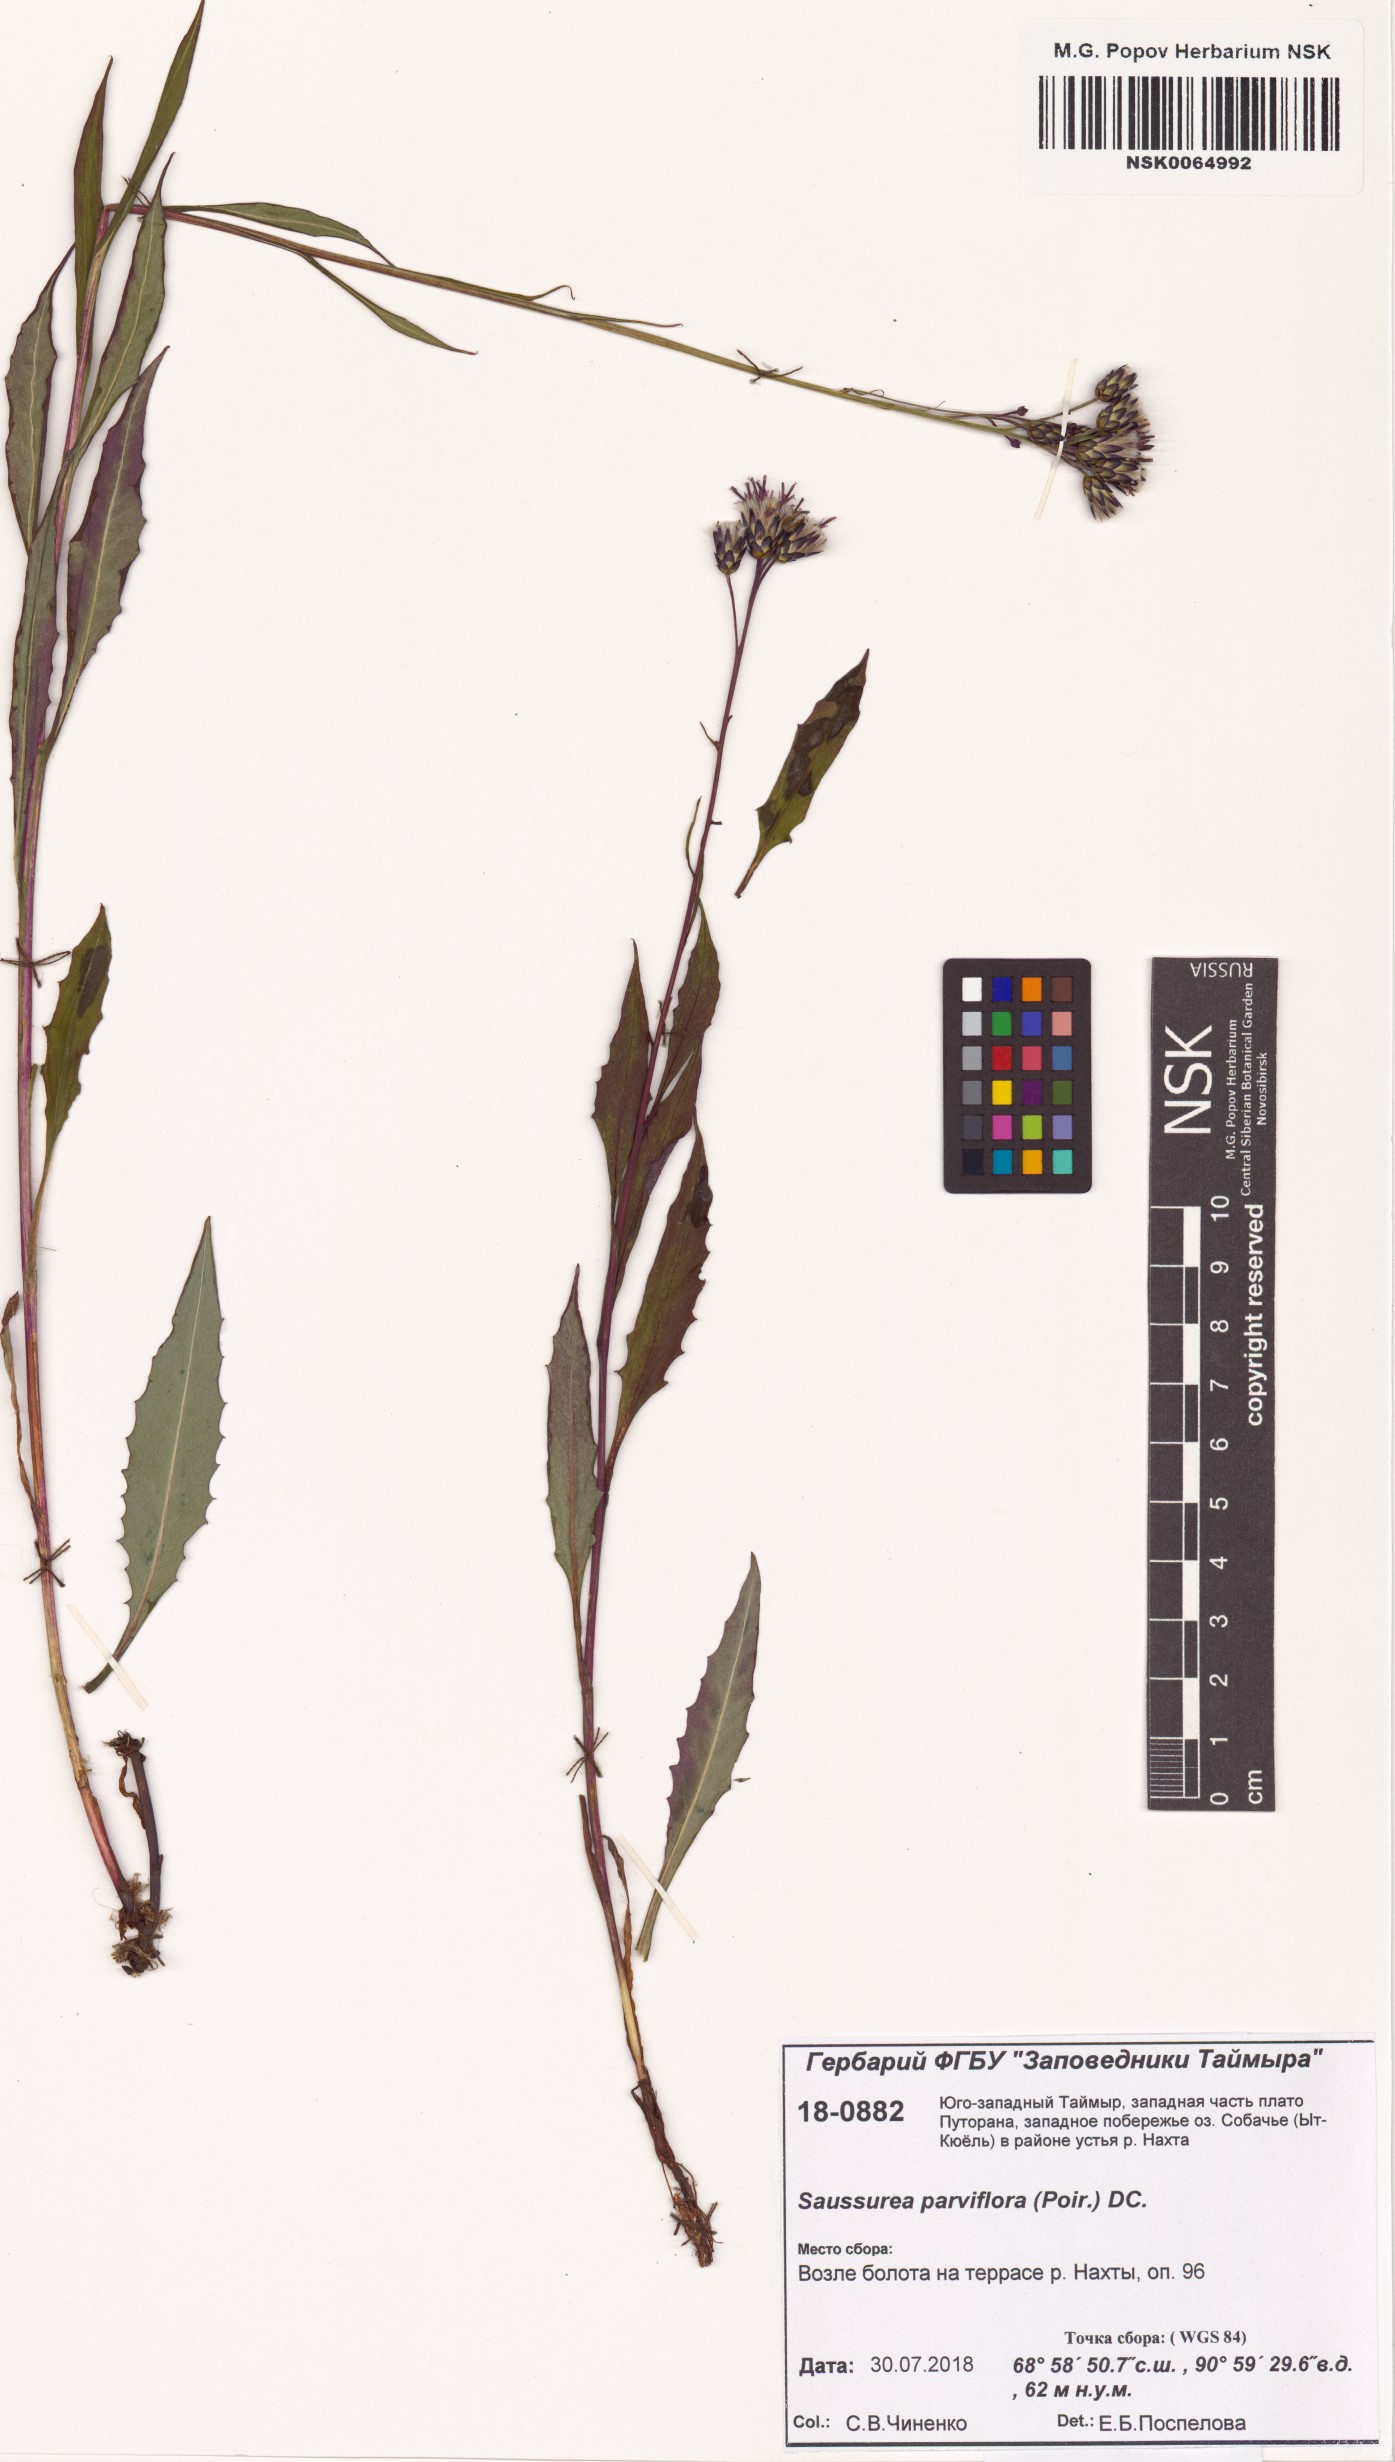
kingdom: Plantae
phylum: Tracheophyta
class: Magnoliopsida
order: Asterales
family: Asteraceae
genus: Saussurea
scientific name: Saussurea parviflora
